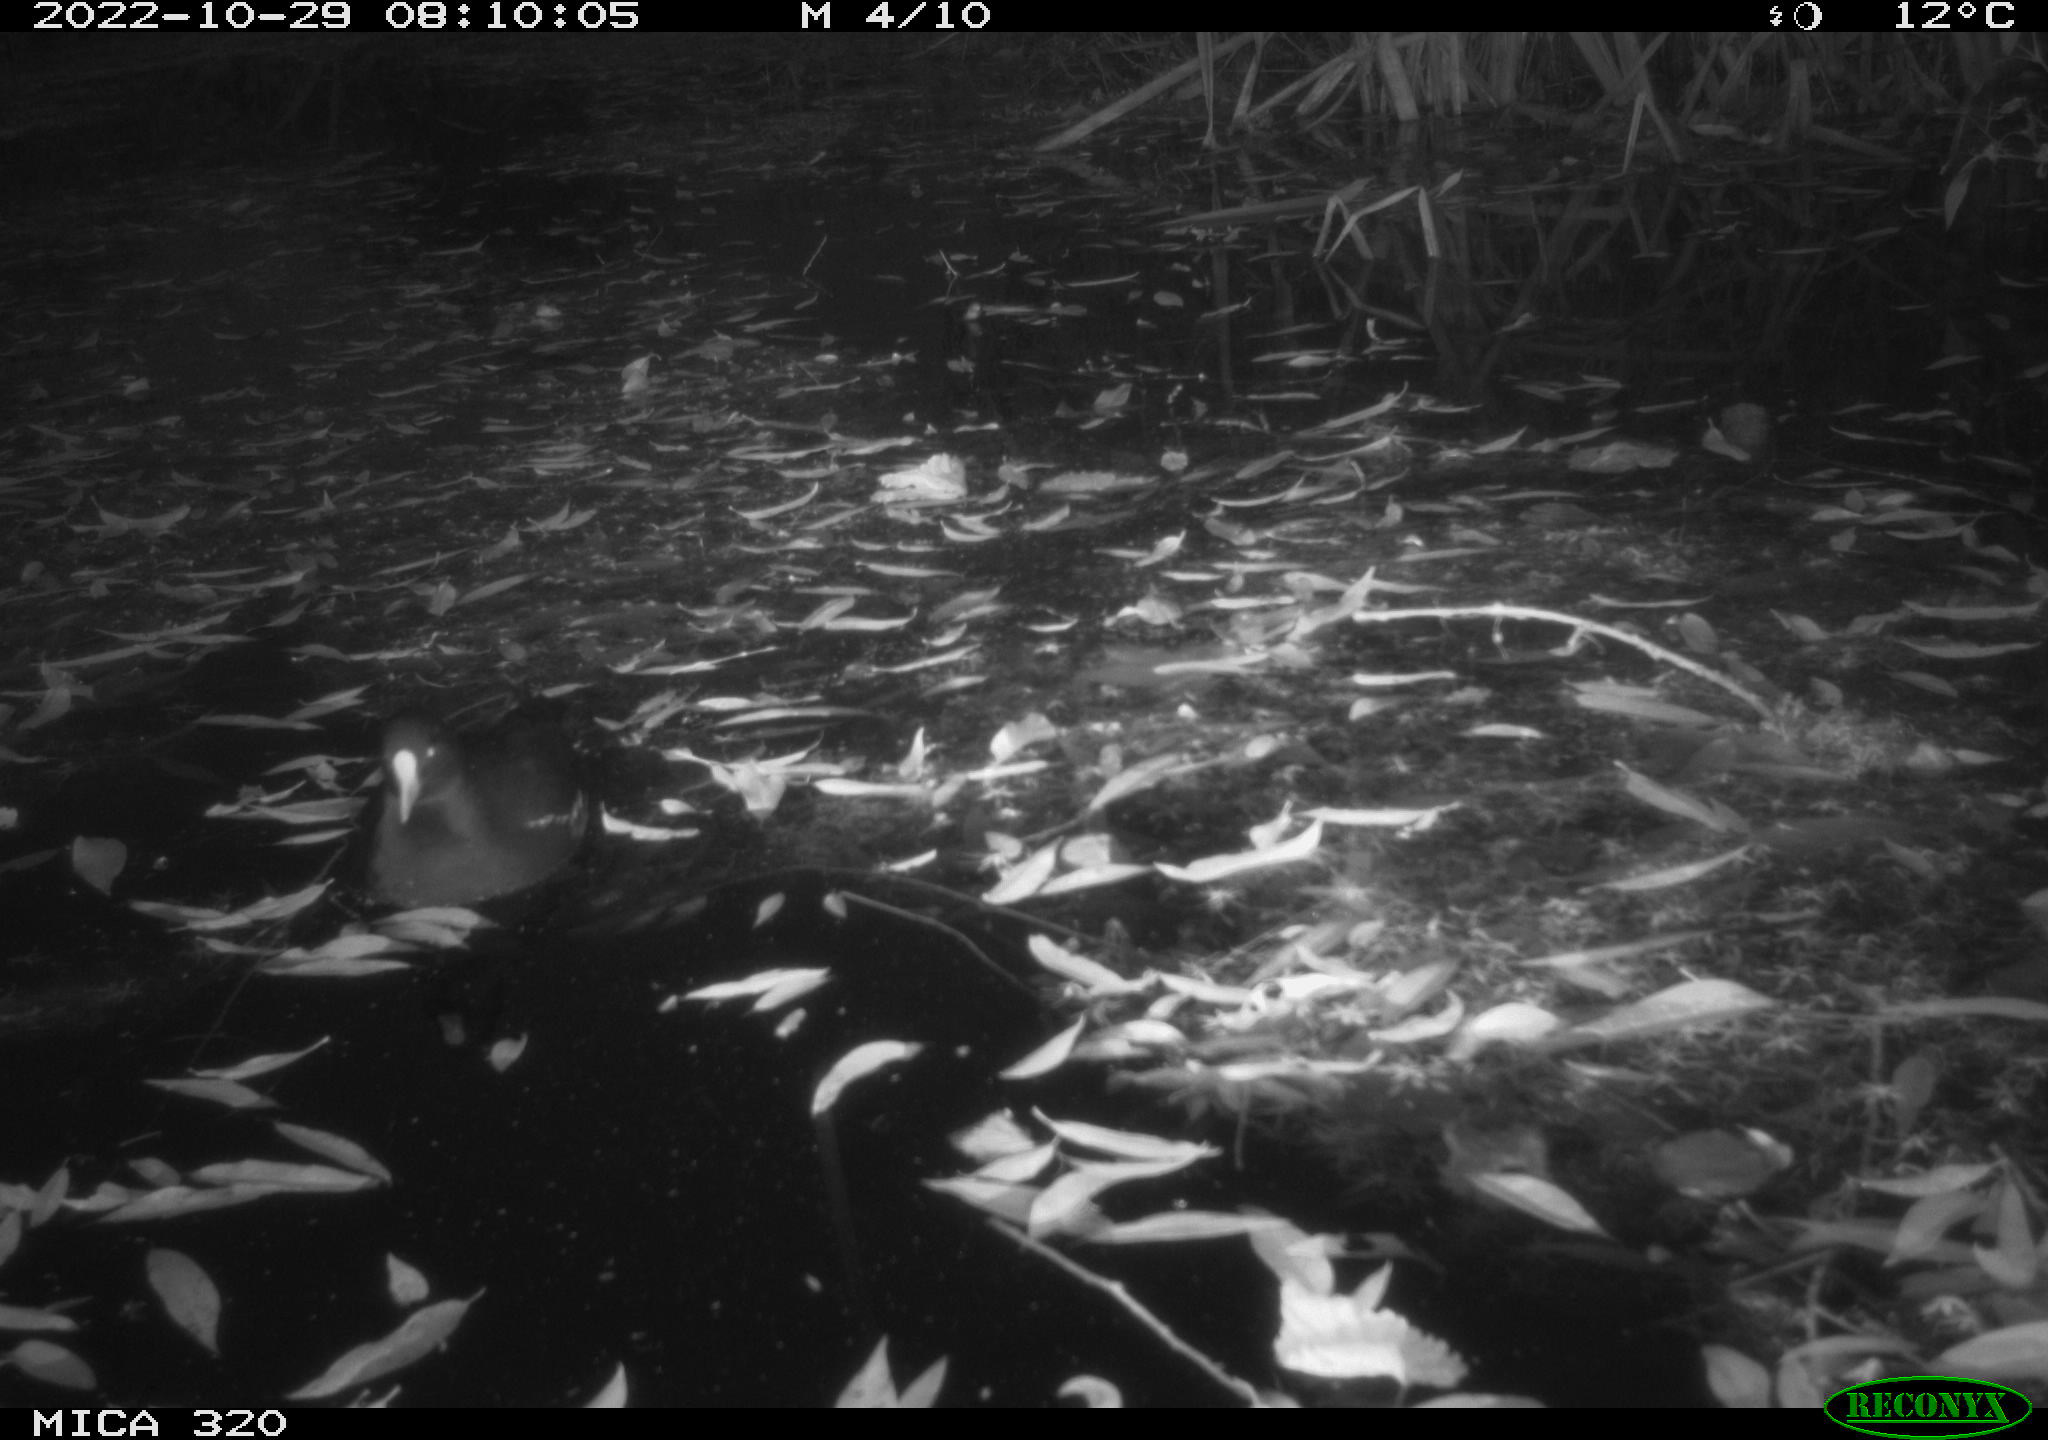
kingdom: Animalia
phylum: Chordata
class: Aves
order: Gruiformes
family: Rallidae
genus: Gallinula
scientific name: Gallinula chloropus
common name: Common moorhen
